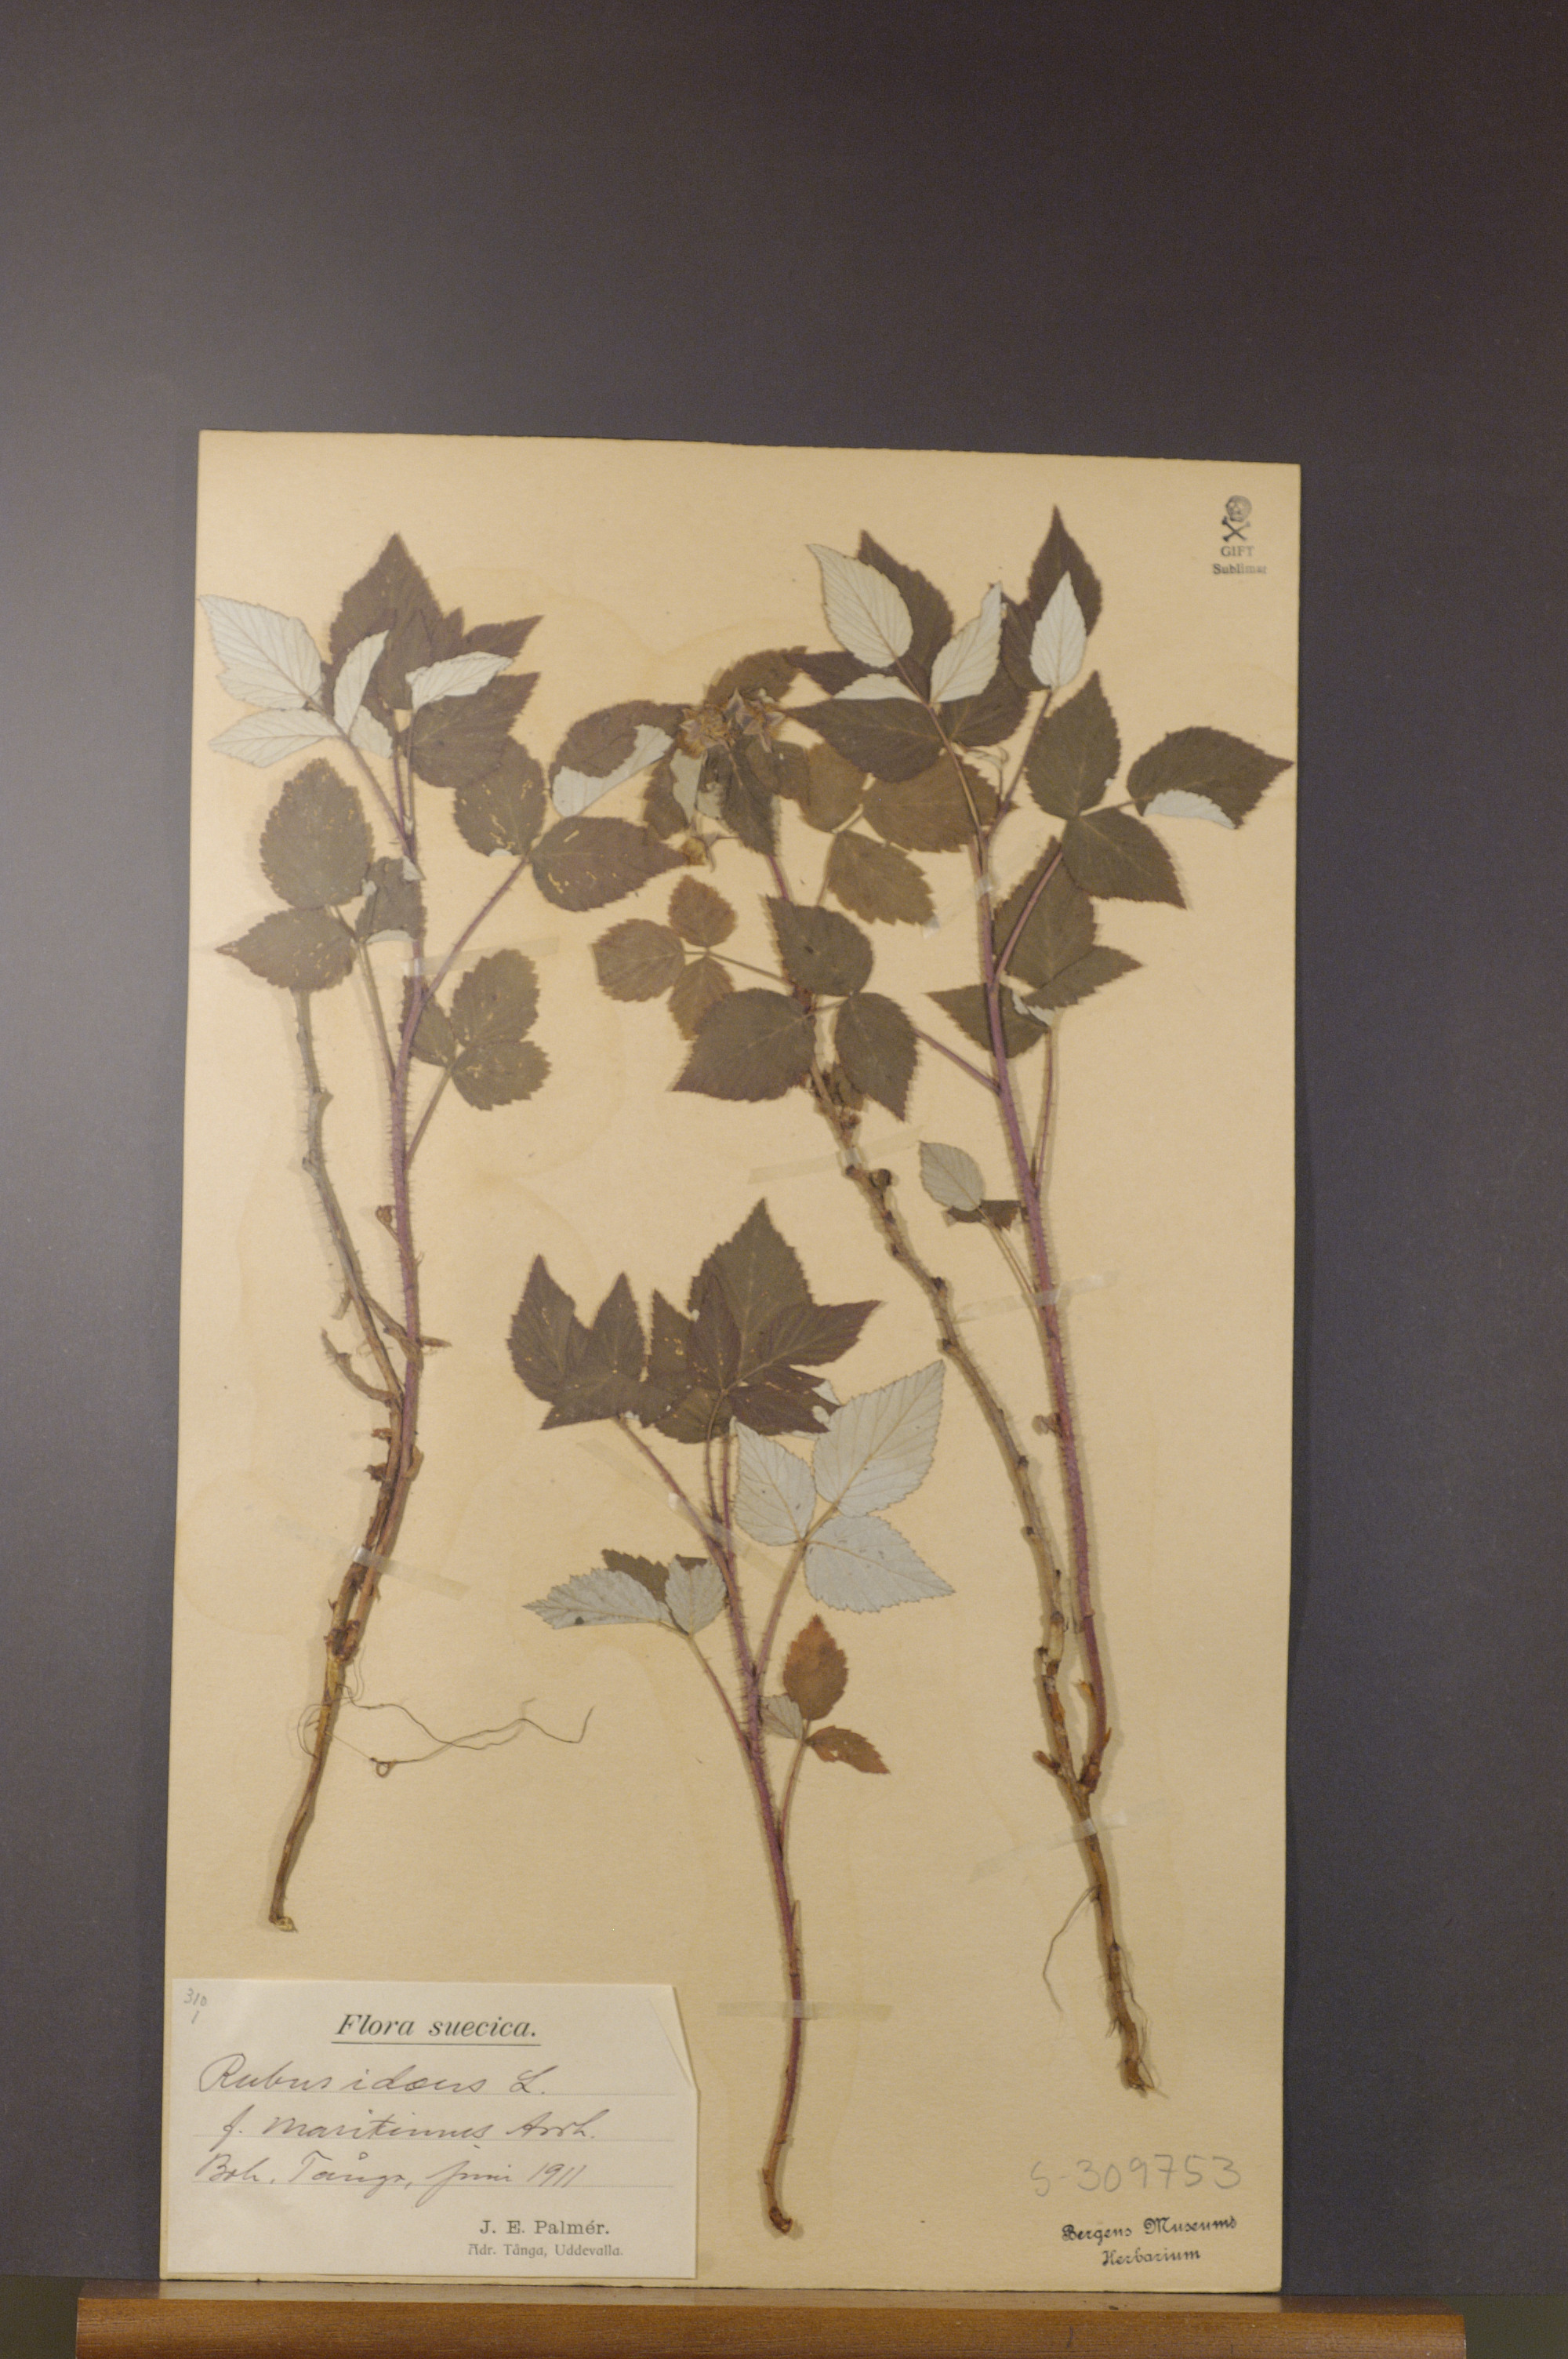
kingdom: Plantae
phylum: Tracheophyta
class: Magnoliopsida
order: Rosales
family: Rosaceae
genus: Rubus
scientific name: Rubus idaeus
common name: Raspberry
